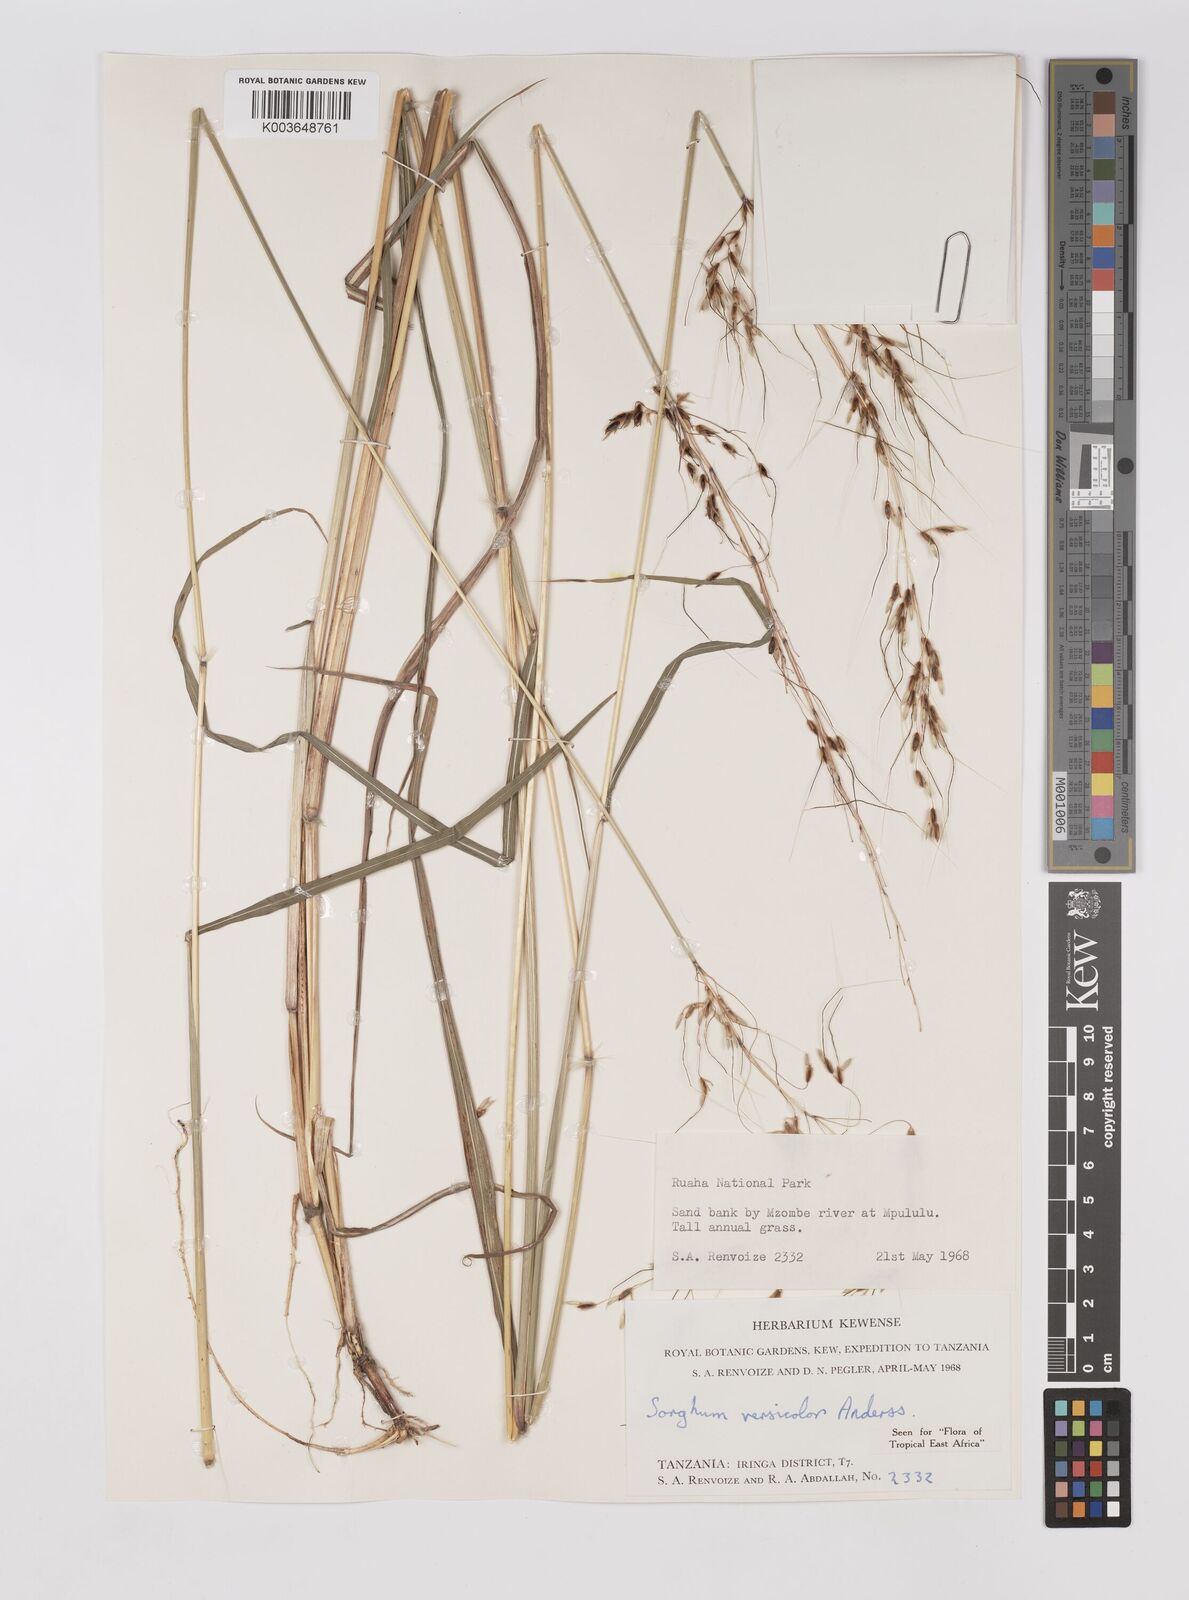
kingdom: Plantae
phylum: Tracheophyta
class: Liliopsida
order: Poales
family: Poaceae
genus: Sarga
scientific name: Sarga versicolor
